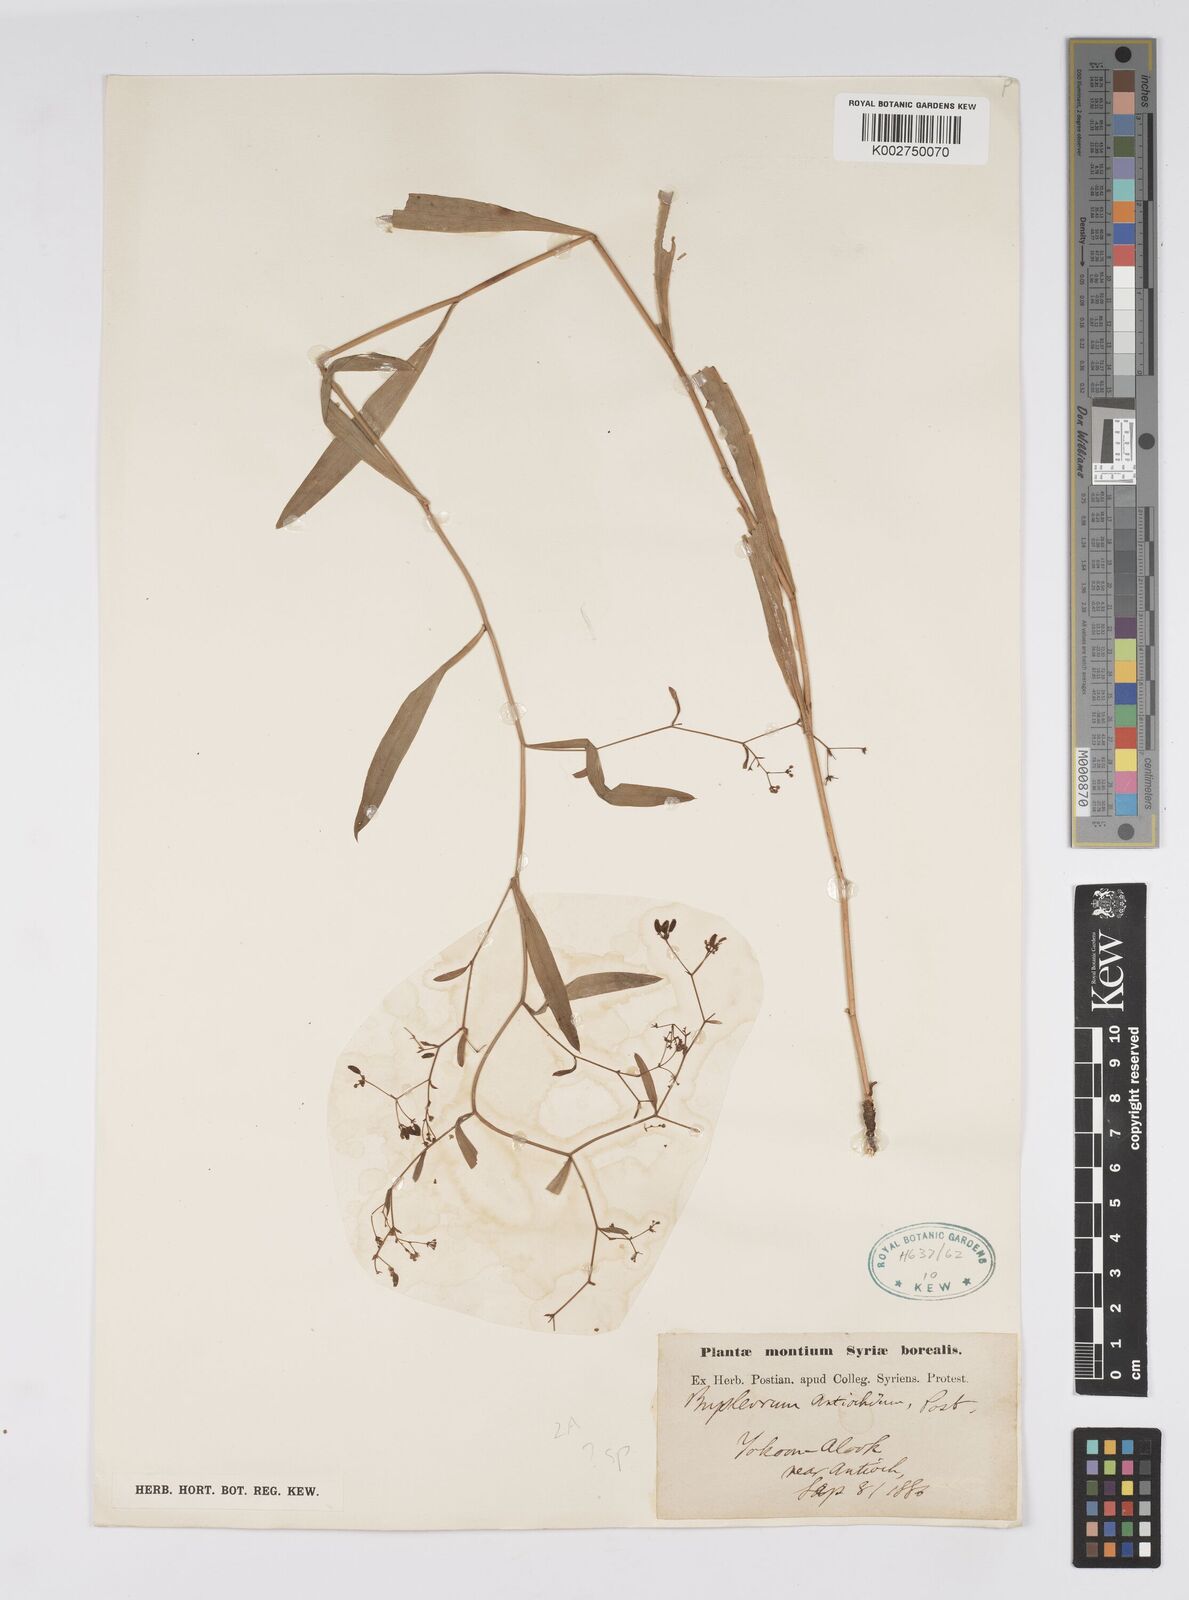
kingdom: Plantae
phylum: Tracheophyta
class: Magnoliopsida
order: Apiales
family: Apiaceae
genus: Bupleurum
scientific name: Bupleurum
